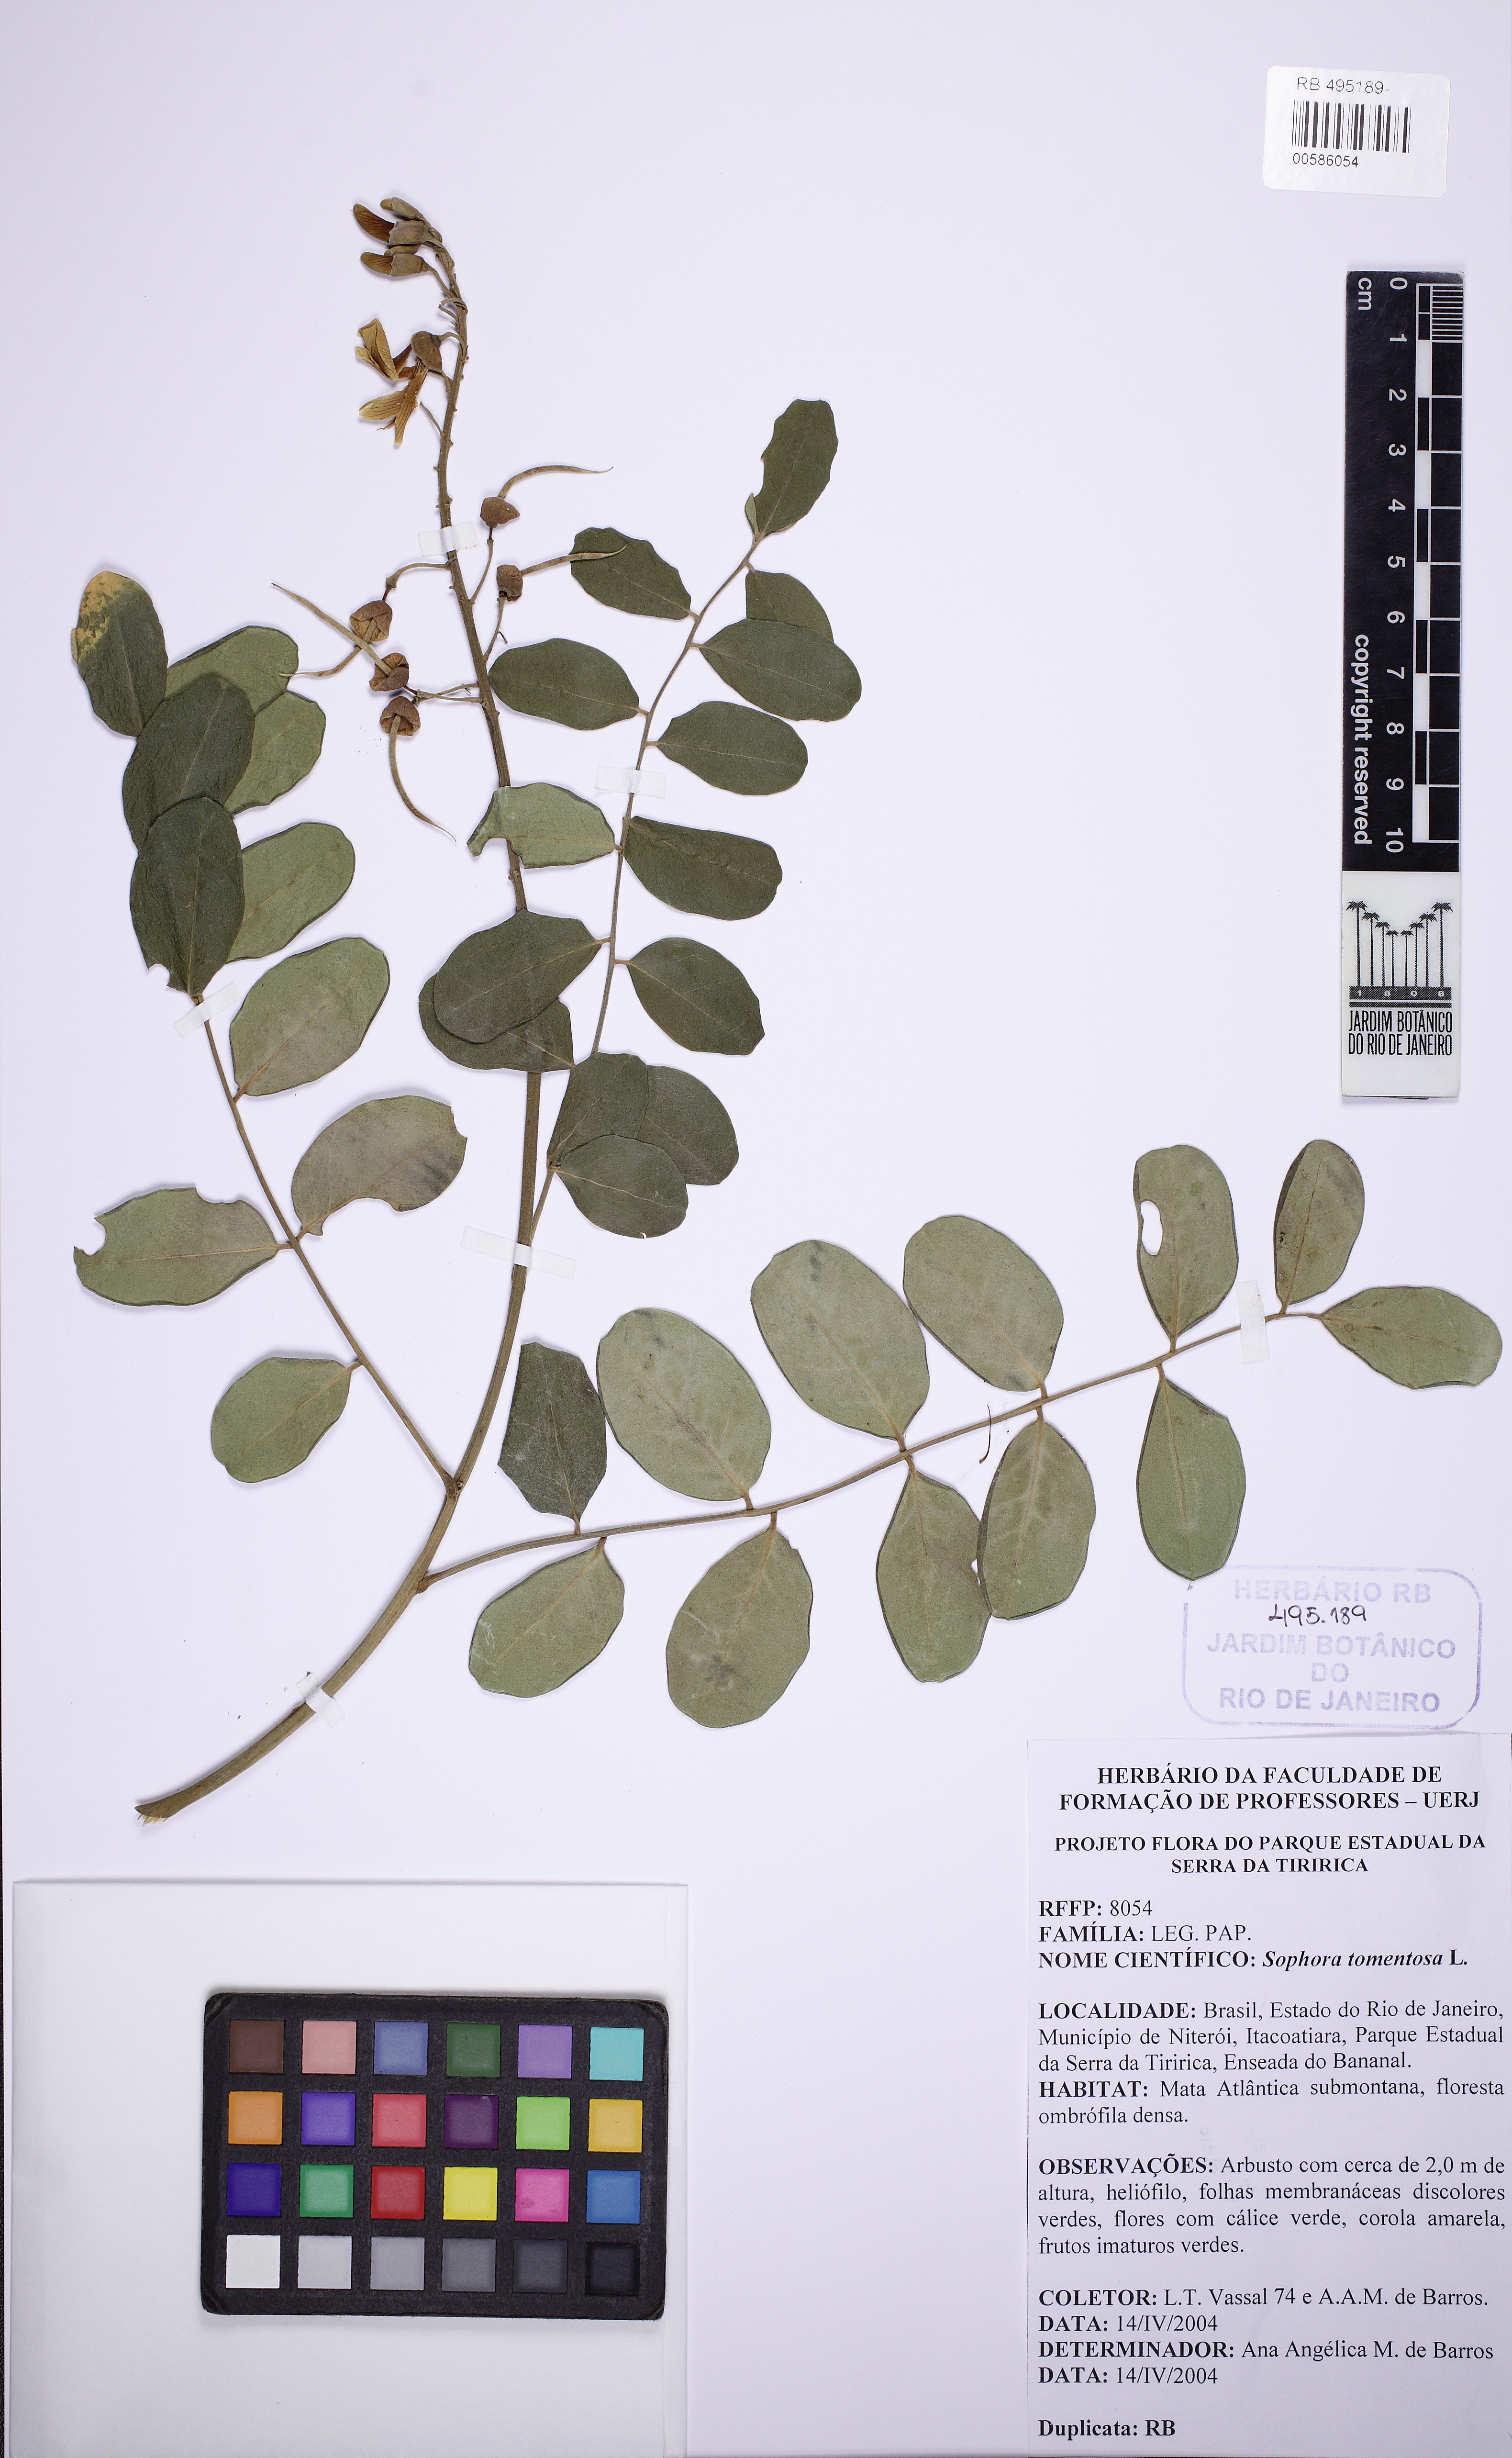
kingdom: Plantae
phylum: Tracheophyta
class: Magnoliopsida
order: Fabales
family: Fabaceae
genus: Sophora
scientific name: Sophora tomentosa
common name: Yellow necklacepod
